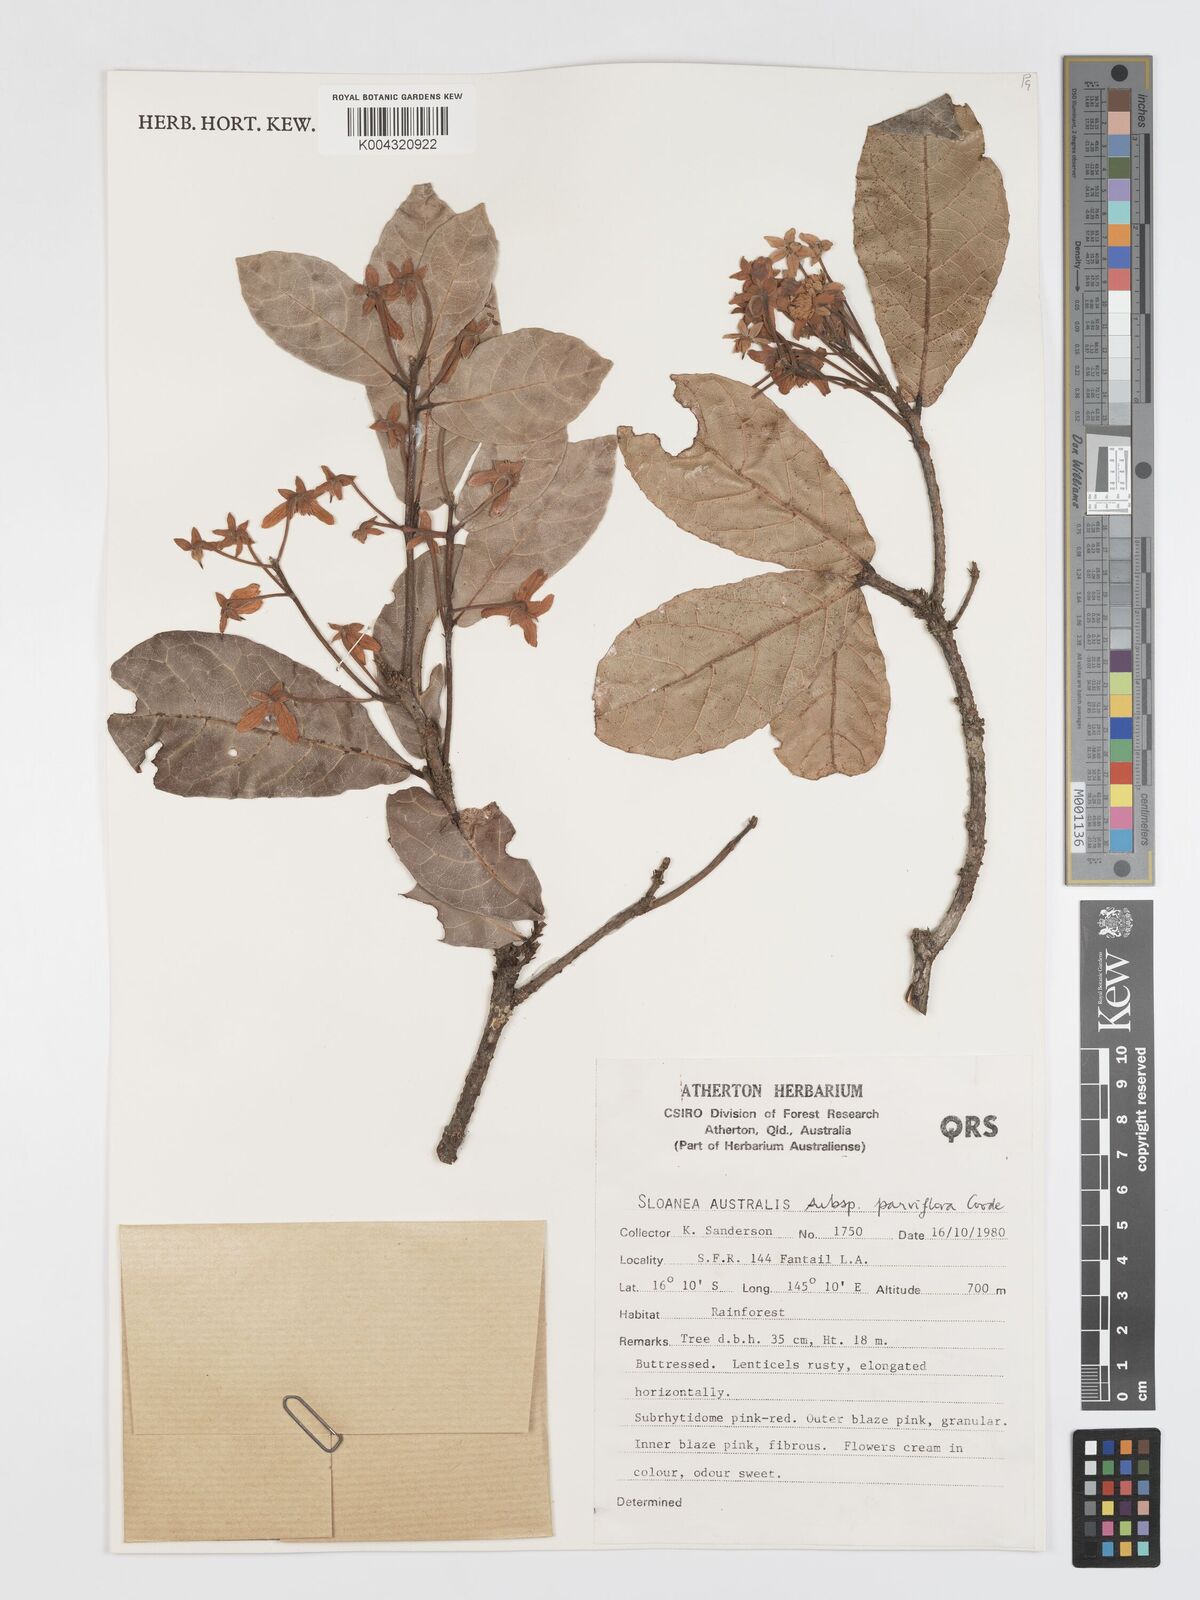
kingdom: Plantae
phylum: Tracheophyta
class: Magnoliopsida
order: Oxalidales
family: Elaeocarpaceae
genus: Sloanea
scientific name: Sloanea australis
